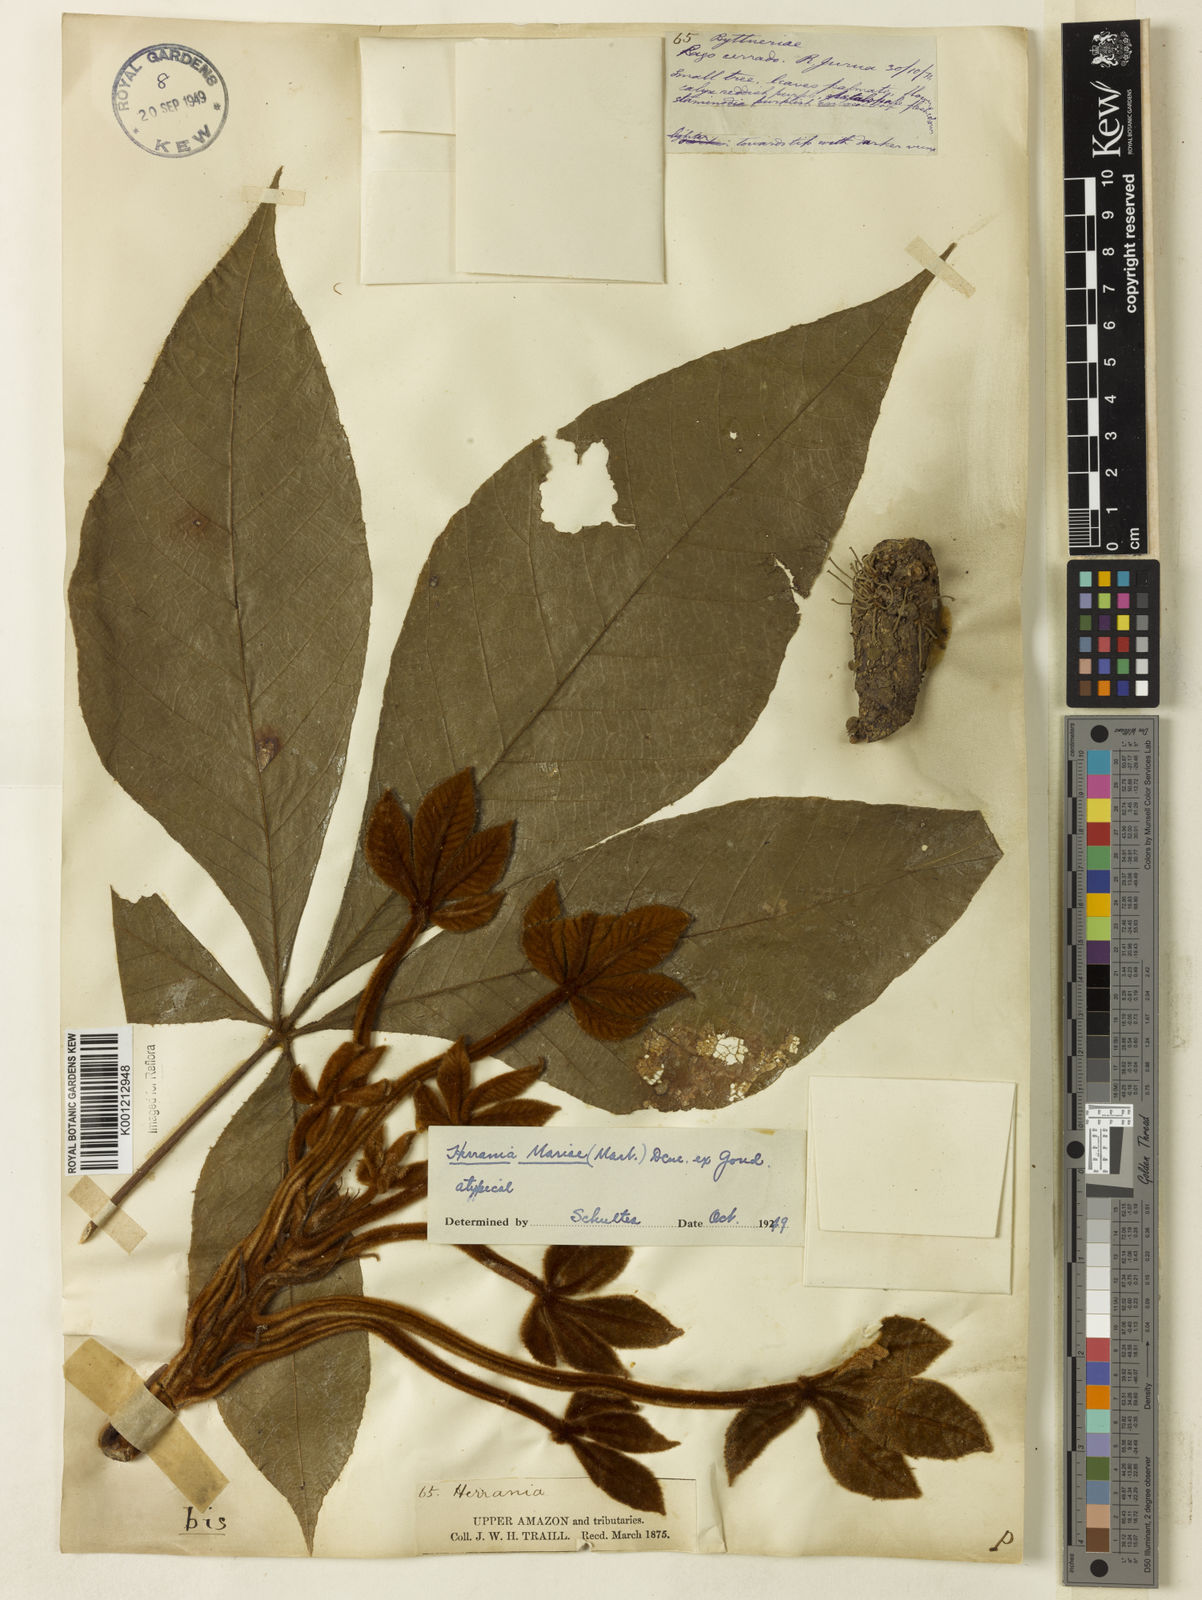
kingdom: Plantae
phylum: Tracheophyta
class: Magnoliopsida
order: Malvales
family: Malvaceae
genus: Herrania
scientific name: Herrania nitida
